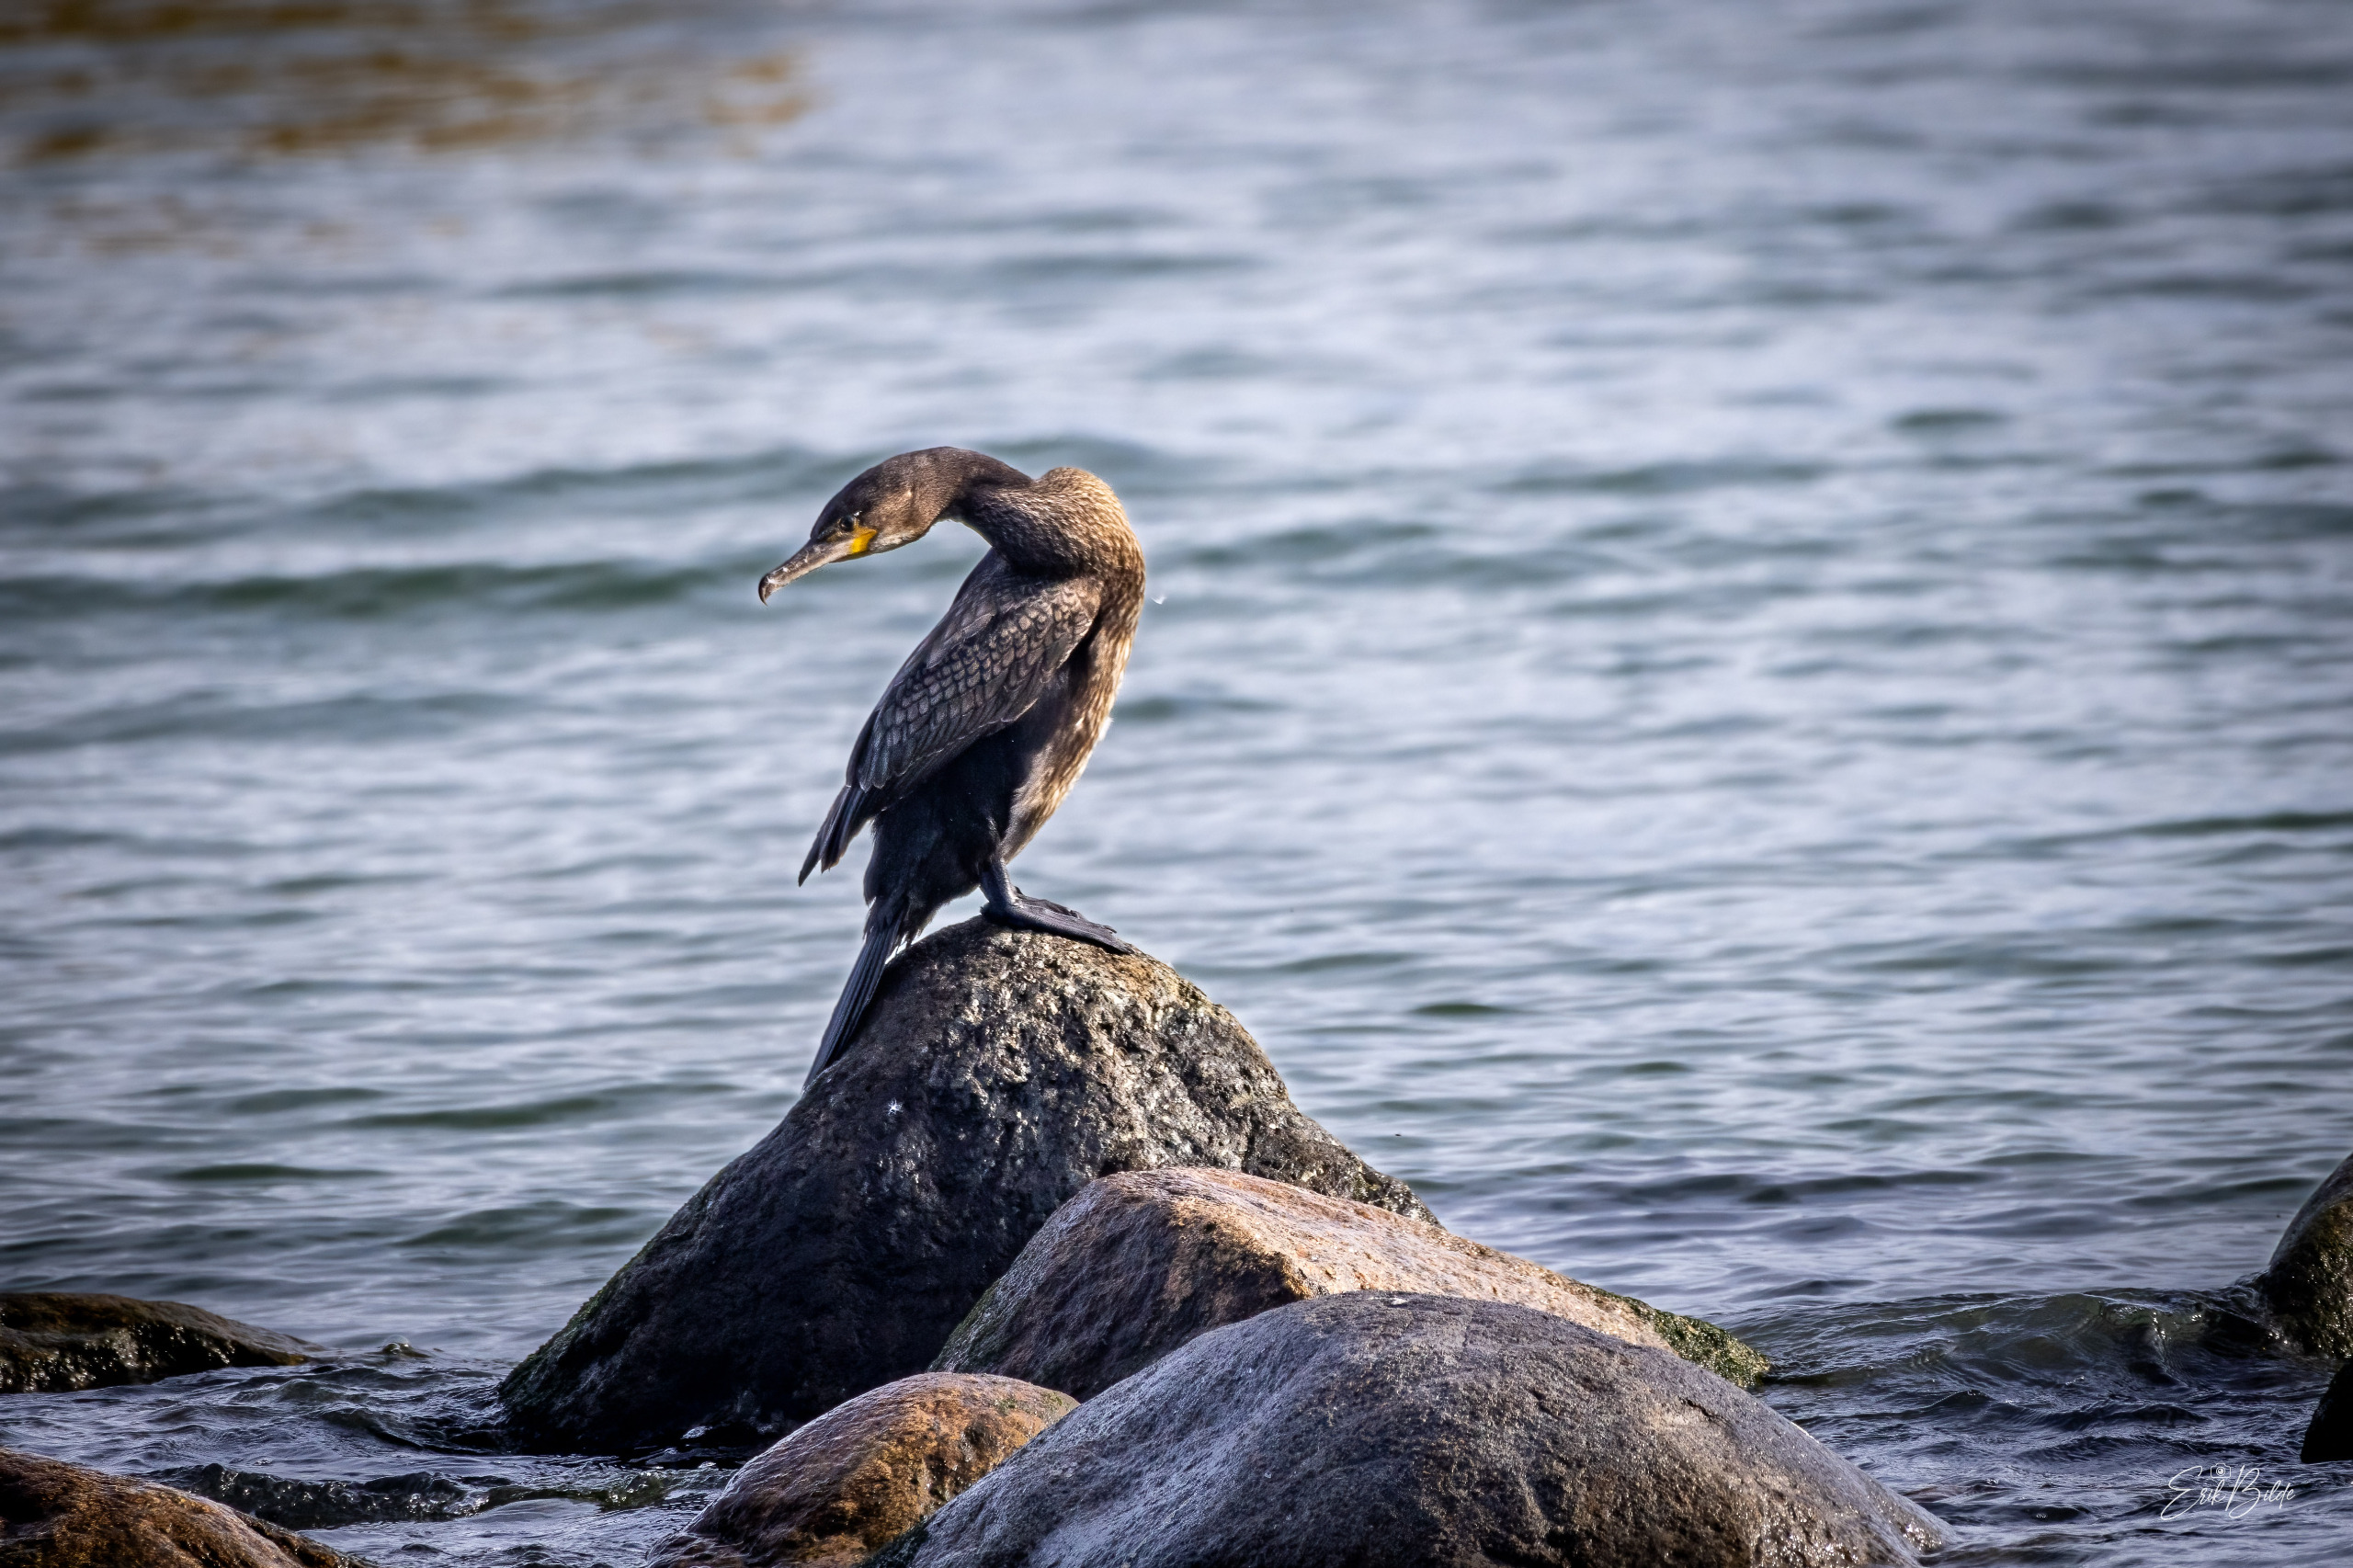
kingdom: Animalia
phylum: Chordata
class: Aves
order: Suliformes
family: Phalacrocoracidae
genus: Phalacrocorax
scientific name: Phalacrocorax carbo
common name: Skarv
